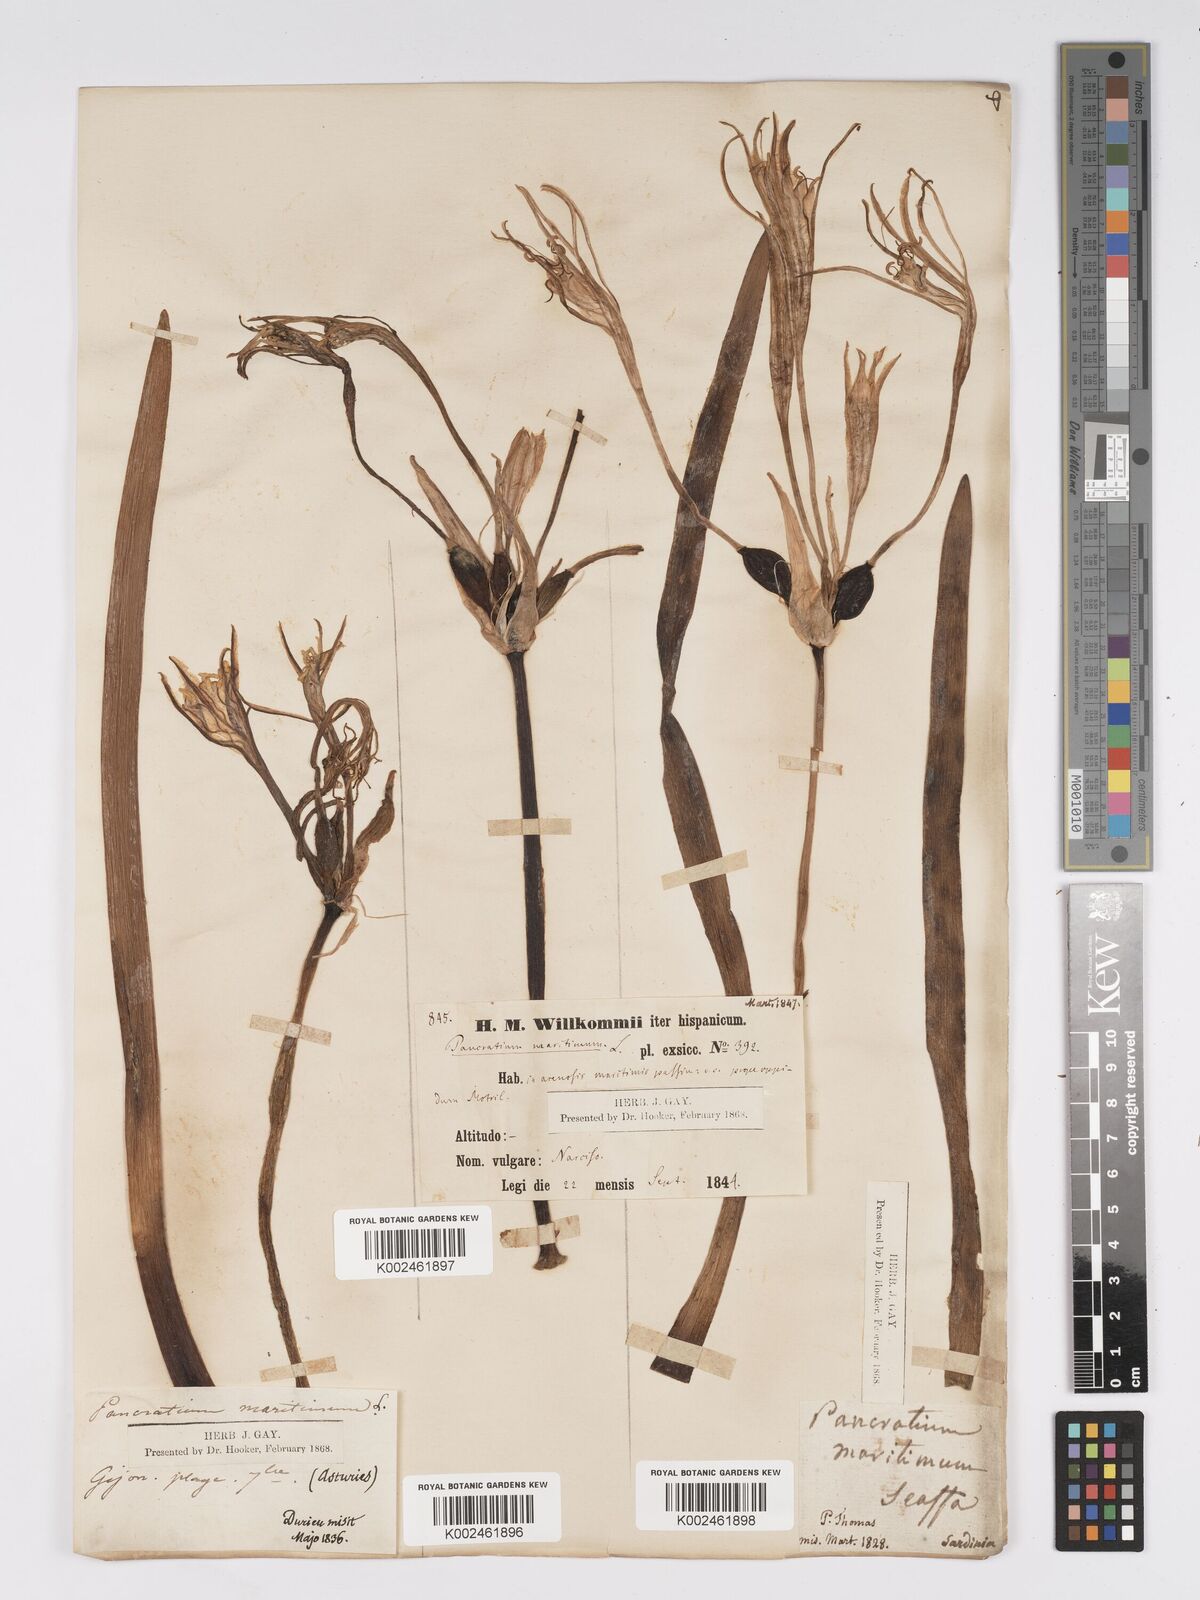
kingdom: Plantae
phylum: Tracheophyta
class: Liliopsida
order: Asparagales
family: Amaryllidaceae
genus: Pancratium
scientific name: Pancratium maritimum
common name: Sea-daffodil
